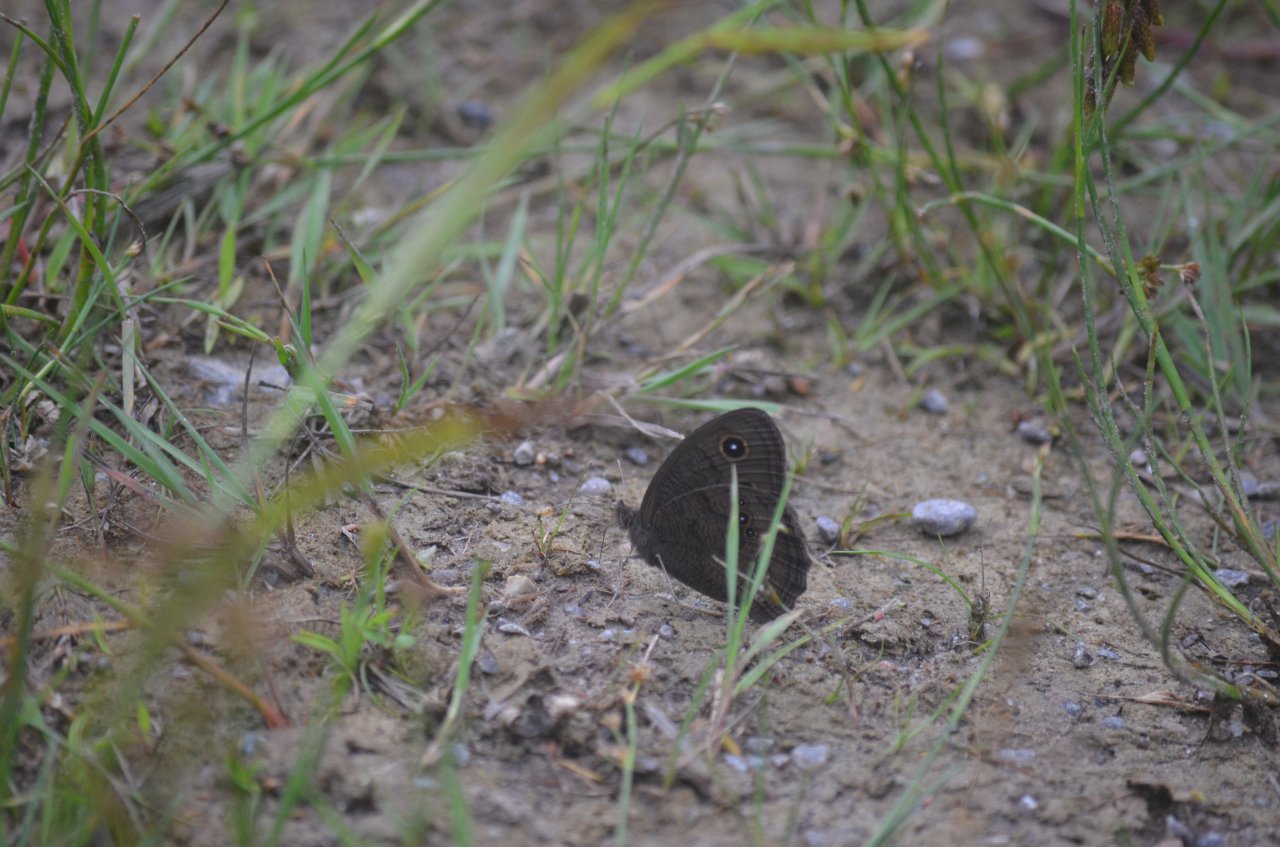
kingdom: Animalia
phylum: Arthropoda
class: Insecta
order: Lepidoptera
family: Nymphalidae
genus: Cercyonis
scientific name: Cercyonis pegala
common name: Common Wood-Nymph
